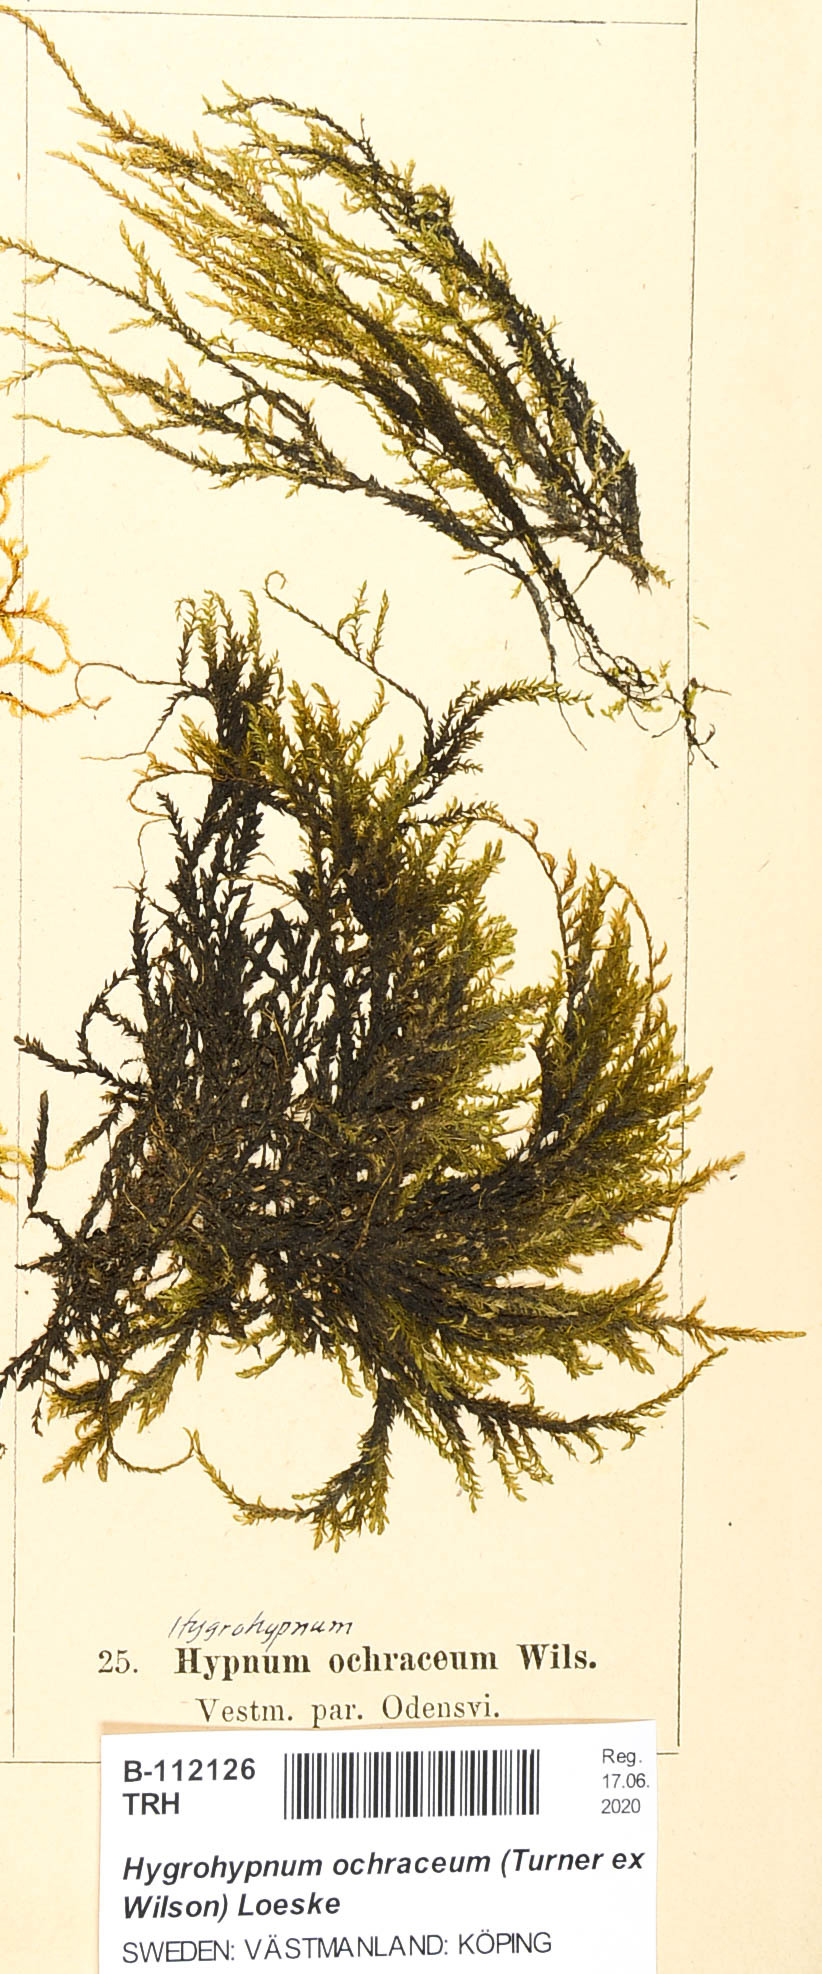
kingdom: Plantae
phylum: Bryophyta
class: Bryopsida
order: Hypnales
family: Scorpidiaceae
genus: Hygrohypnella
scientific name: Hygrohypnella ochracea
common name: Hygrohypnum moss
